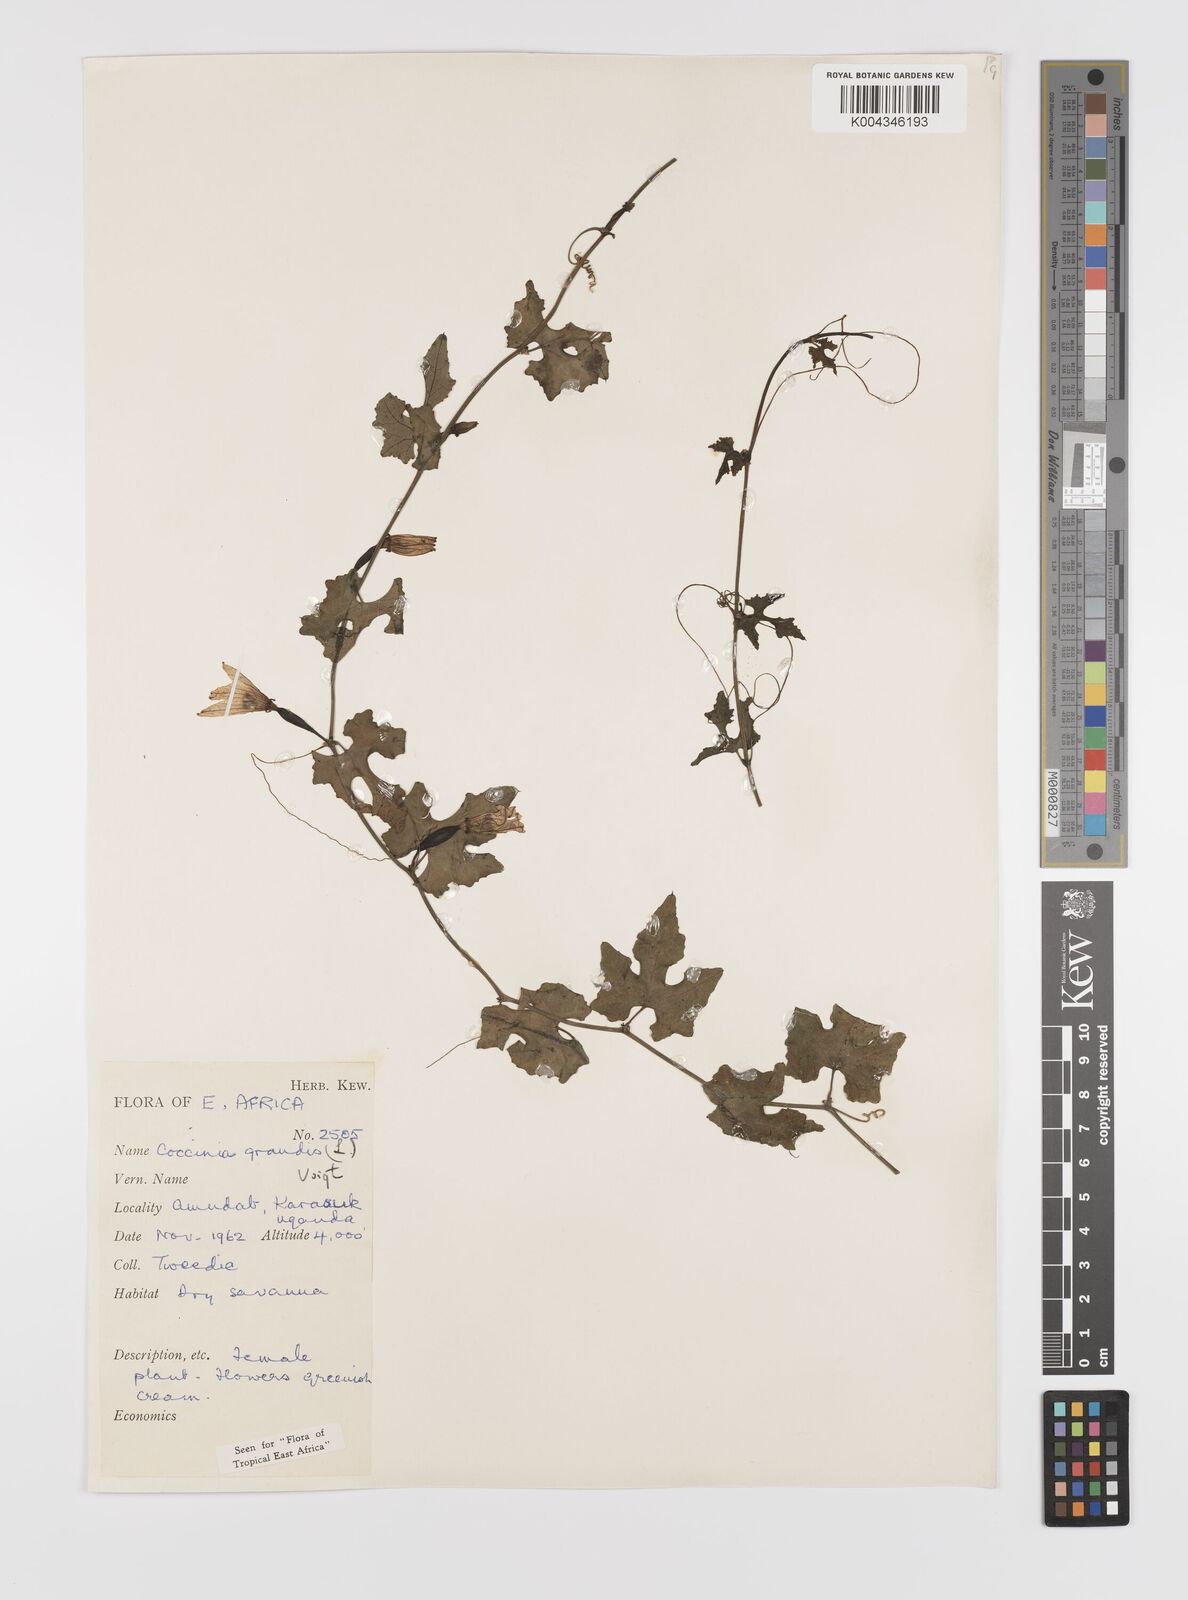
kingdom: Plantae
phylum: Tracheophyta
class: Magnoliopsida
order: Cucurbitales
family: Cucurbitaceae
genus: Coccinia
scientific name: Coccinia grandis
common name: Ivy gourd
